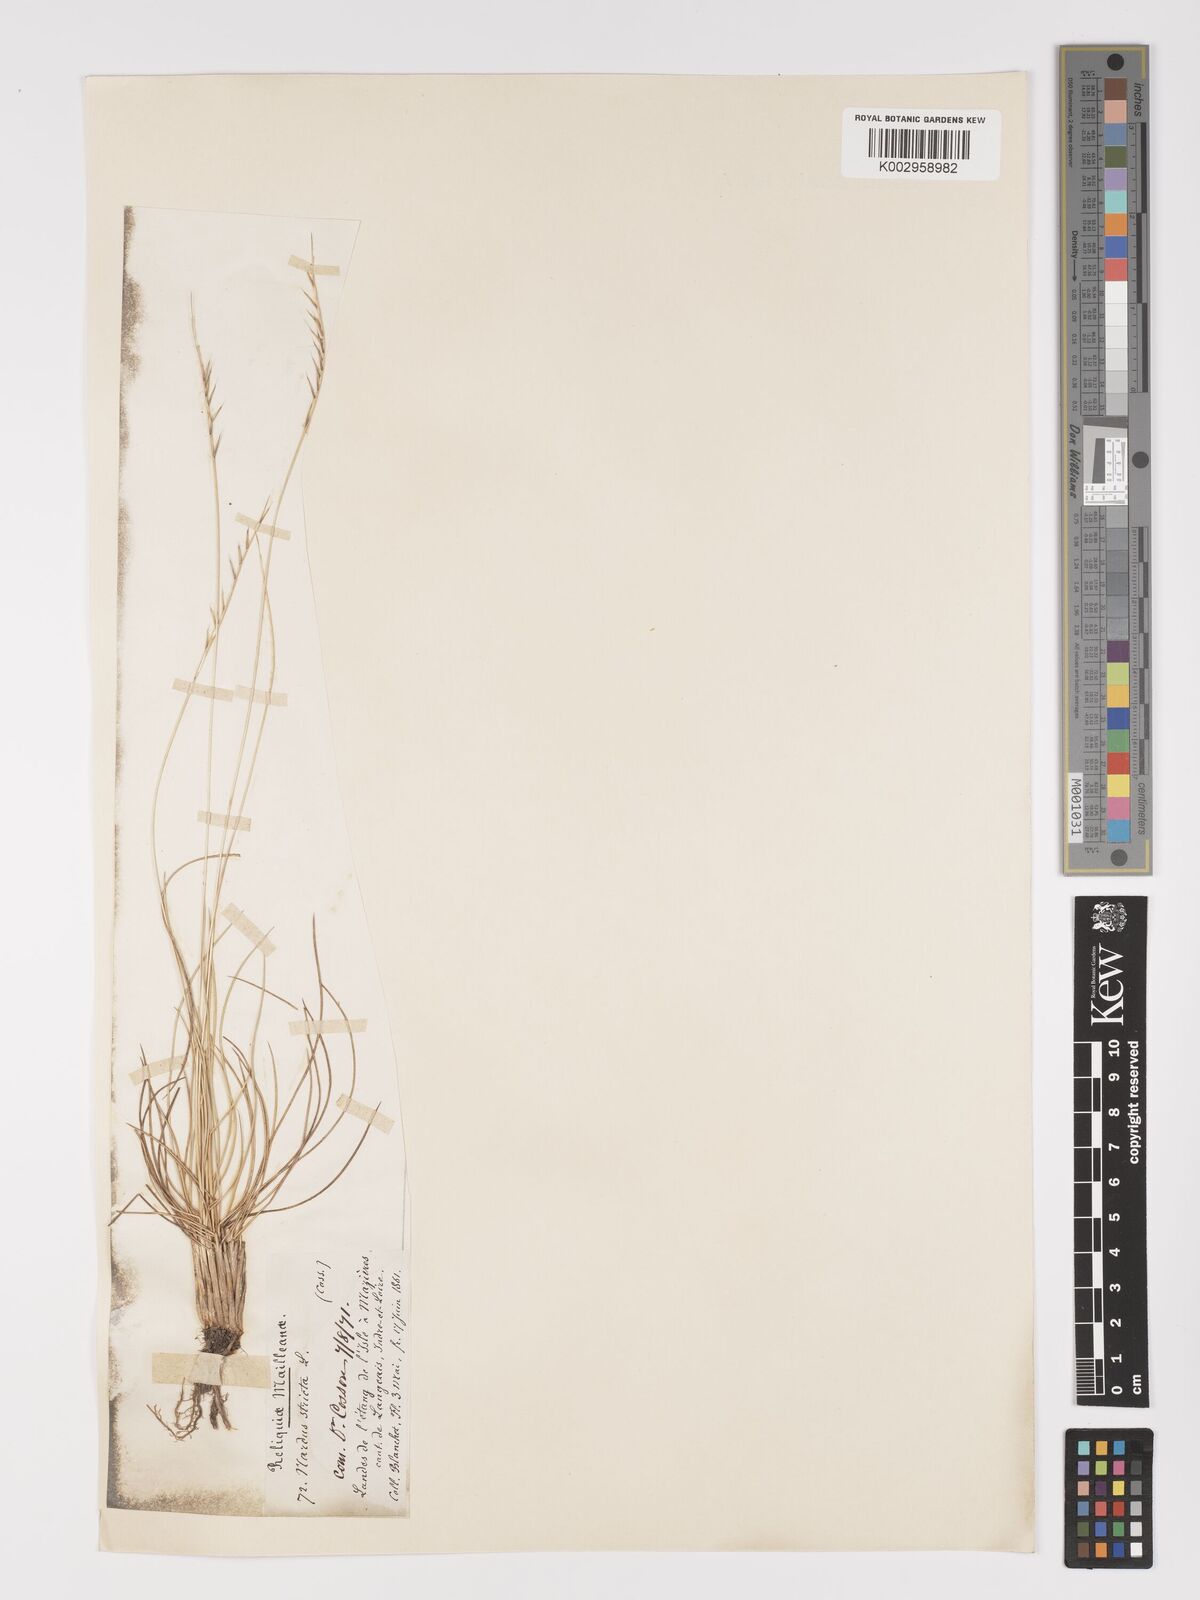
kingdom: Plantae
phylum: Tracheophyta
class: Liliopsida
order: Poales
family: Poaceae
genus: Nardus
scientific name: Nardus stricta
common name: Mat-grass
